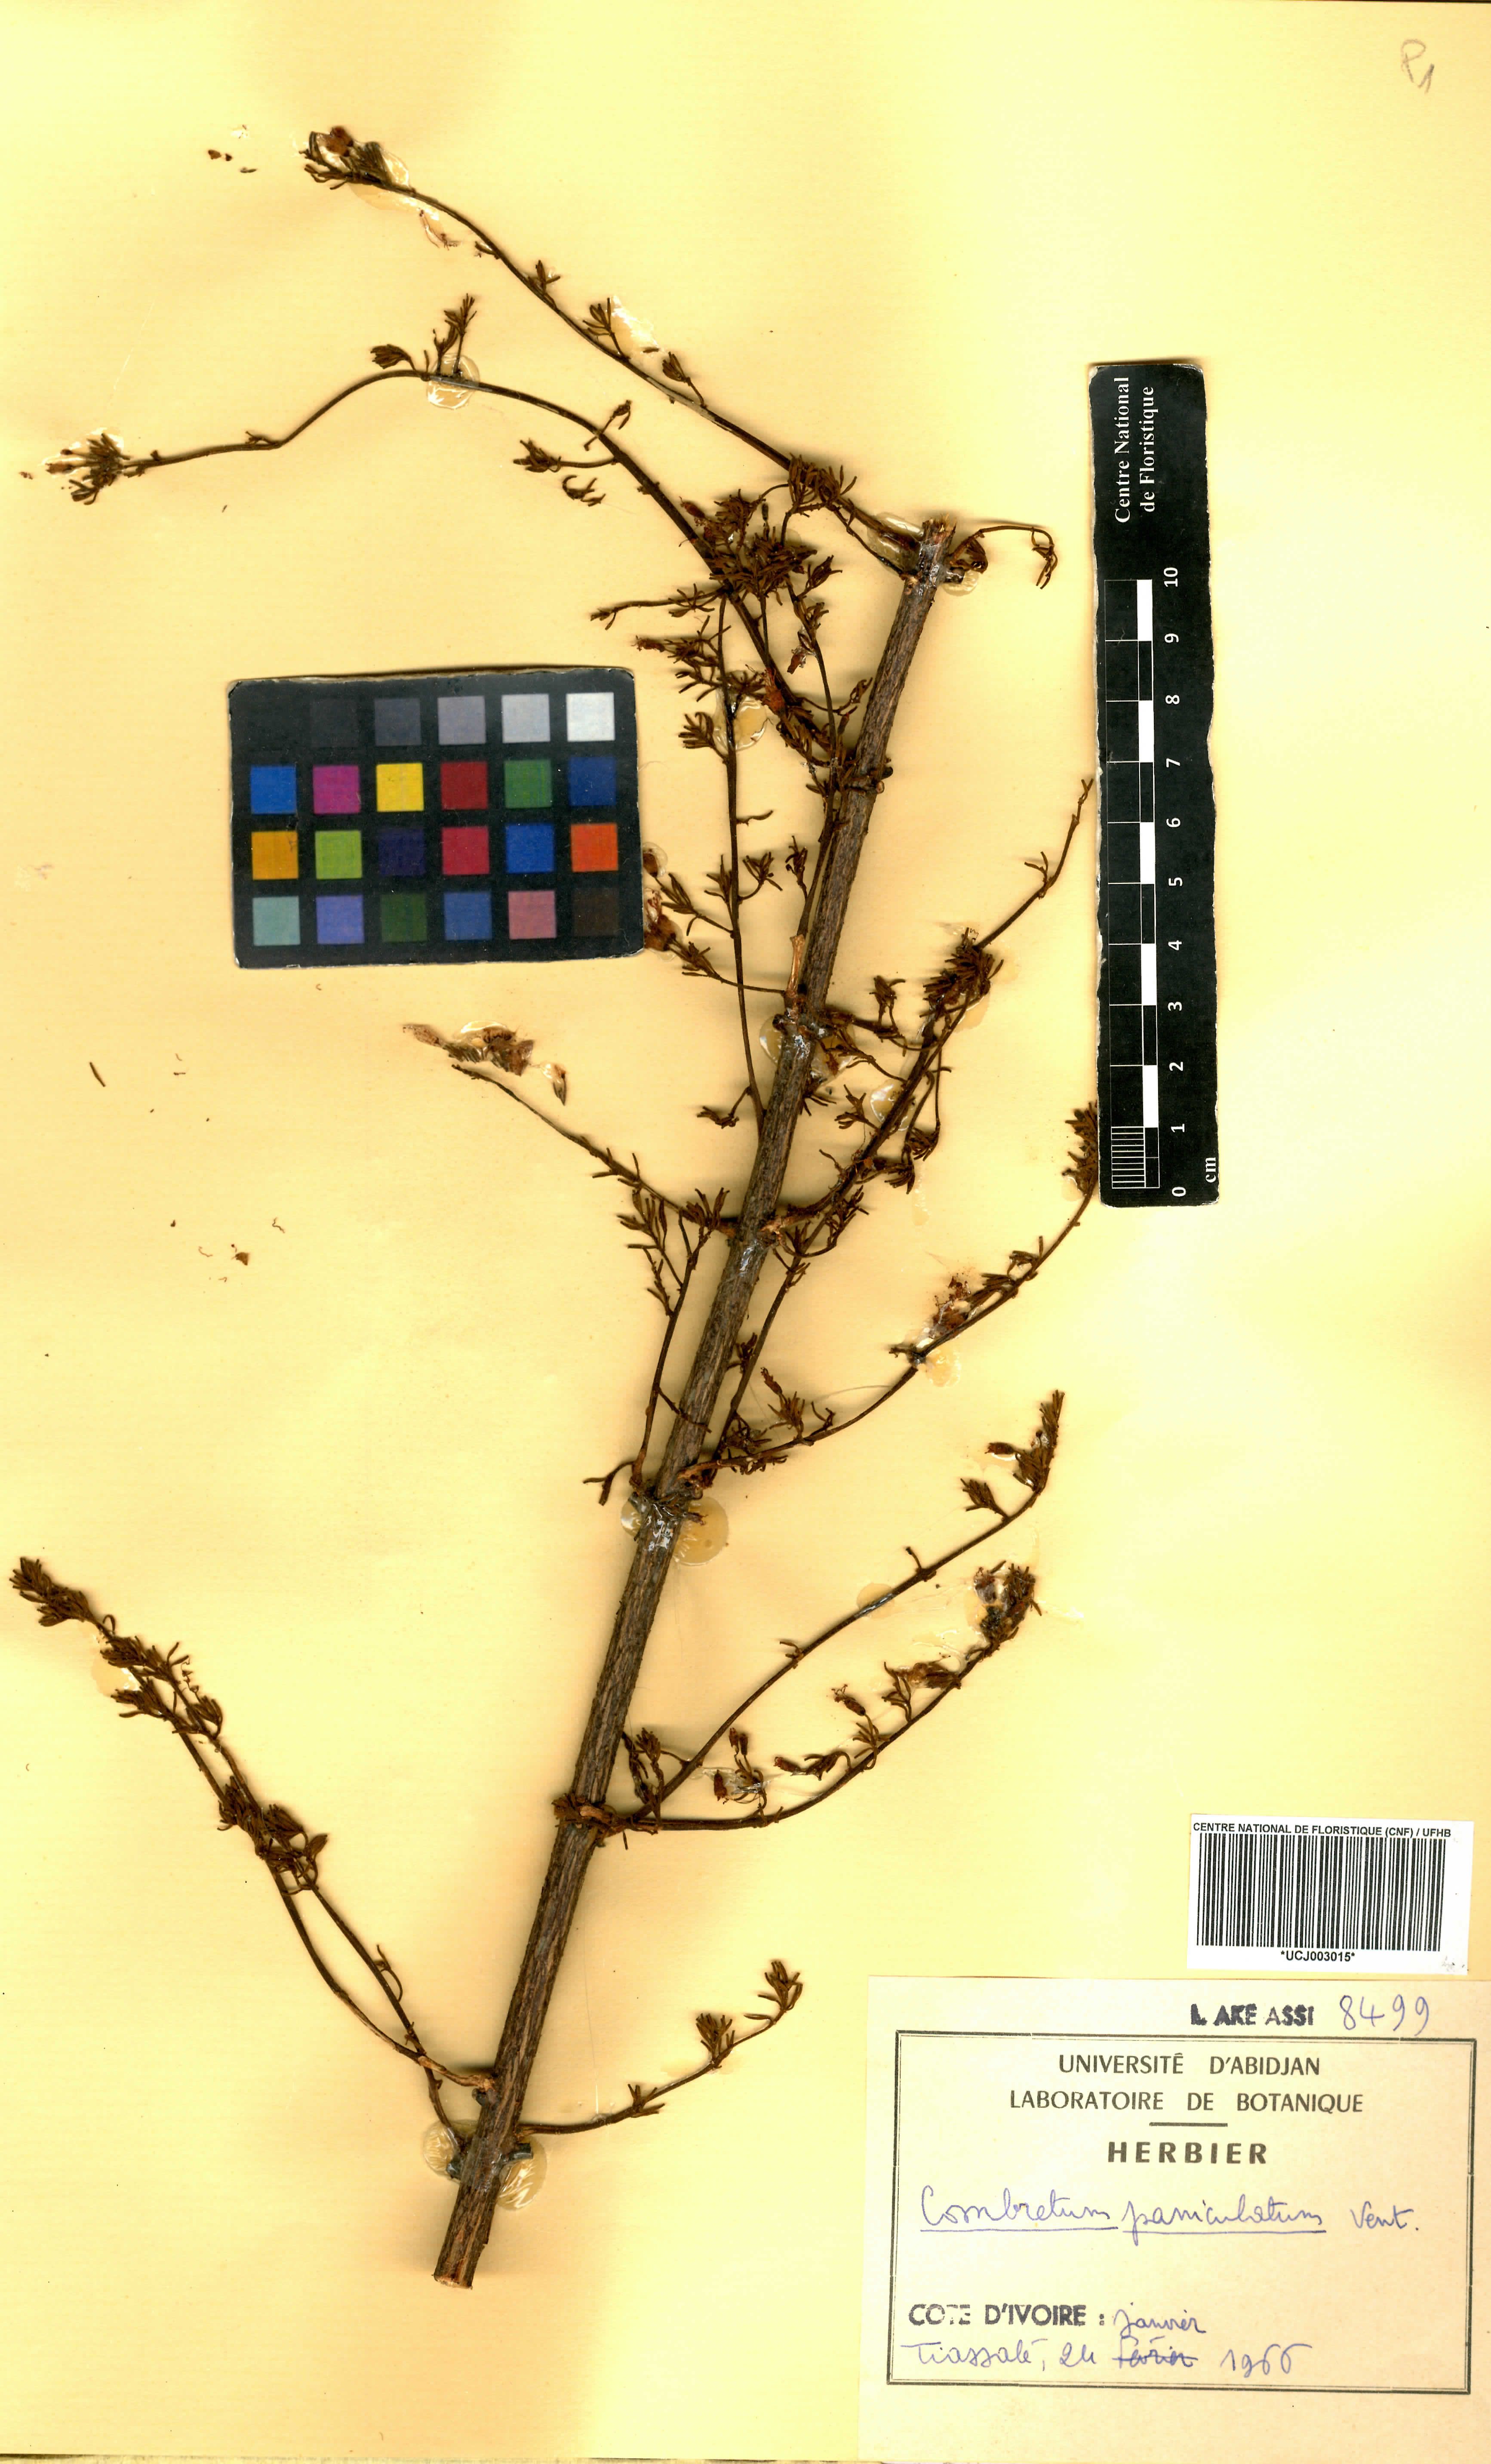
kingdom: Plantae
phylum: Tracheophyta
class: Magnoliopsida
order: Myrtales
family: Combretaceae
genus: Combretum
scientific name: Combretum paniculatum
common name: Fire vine
